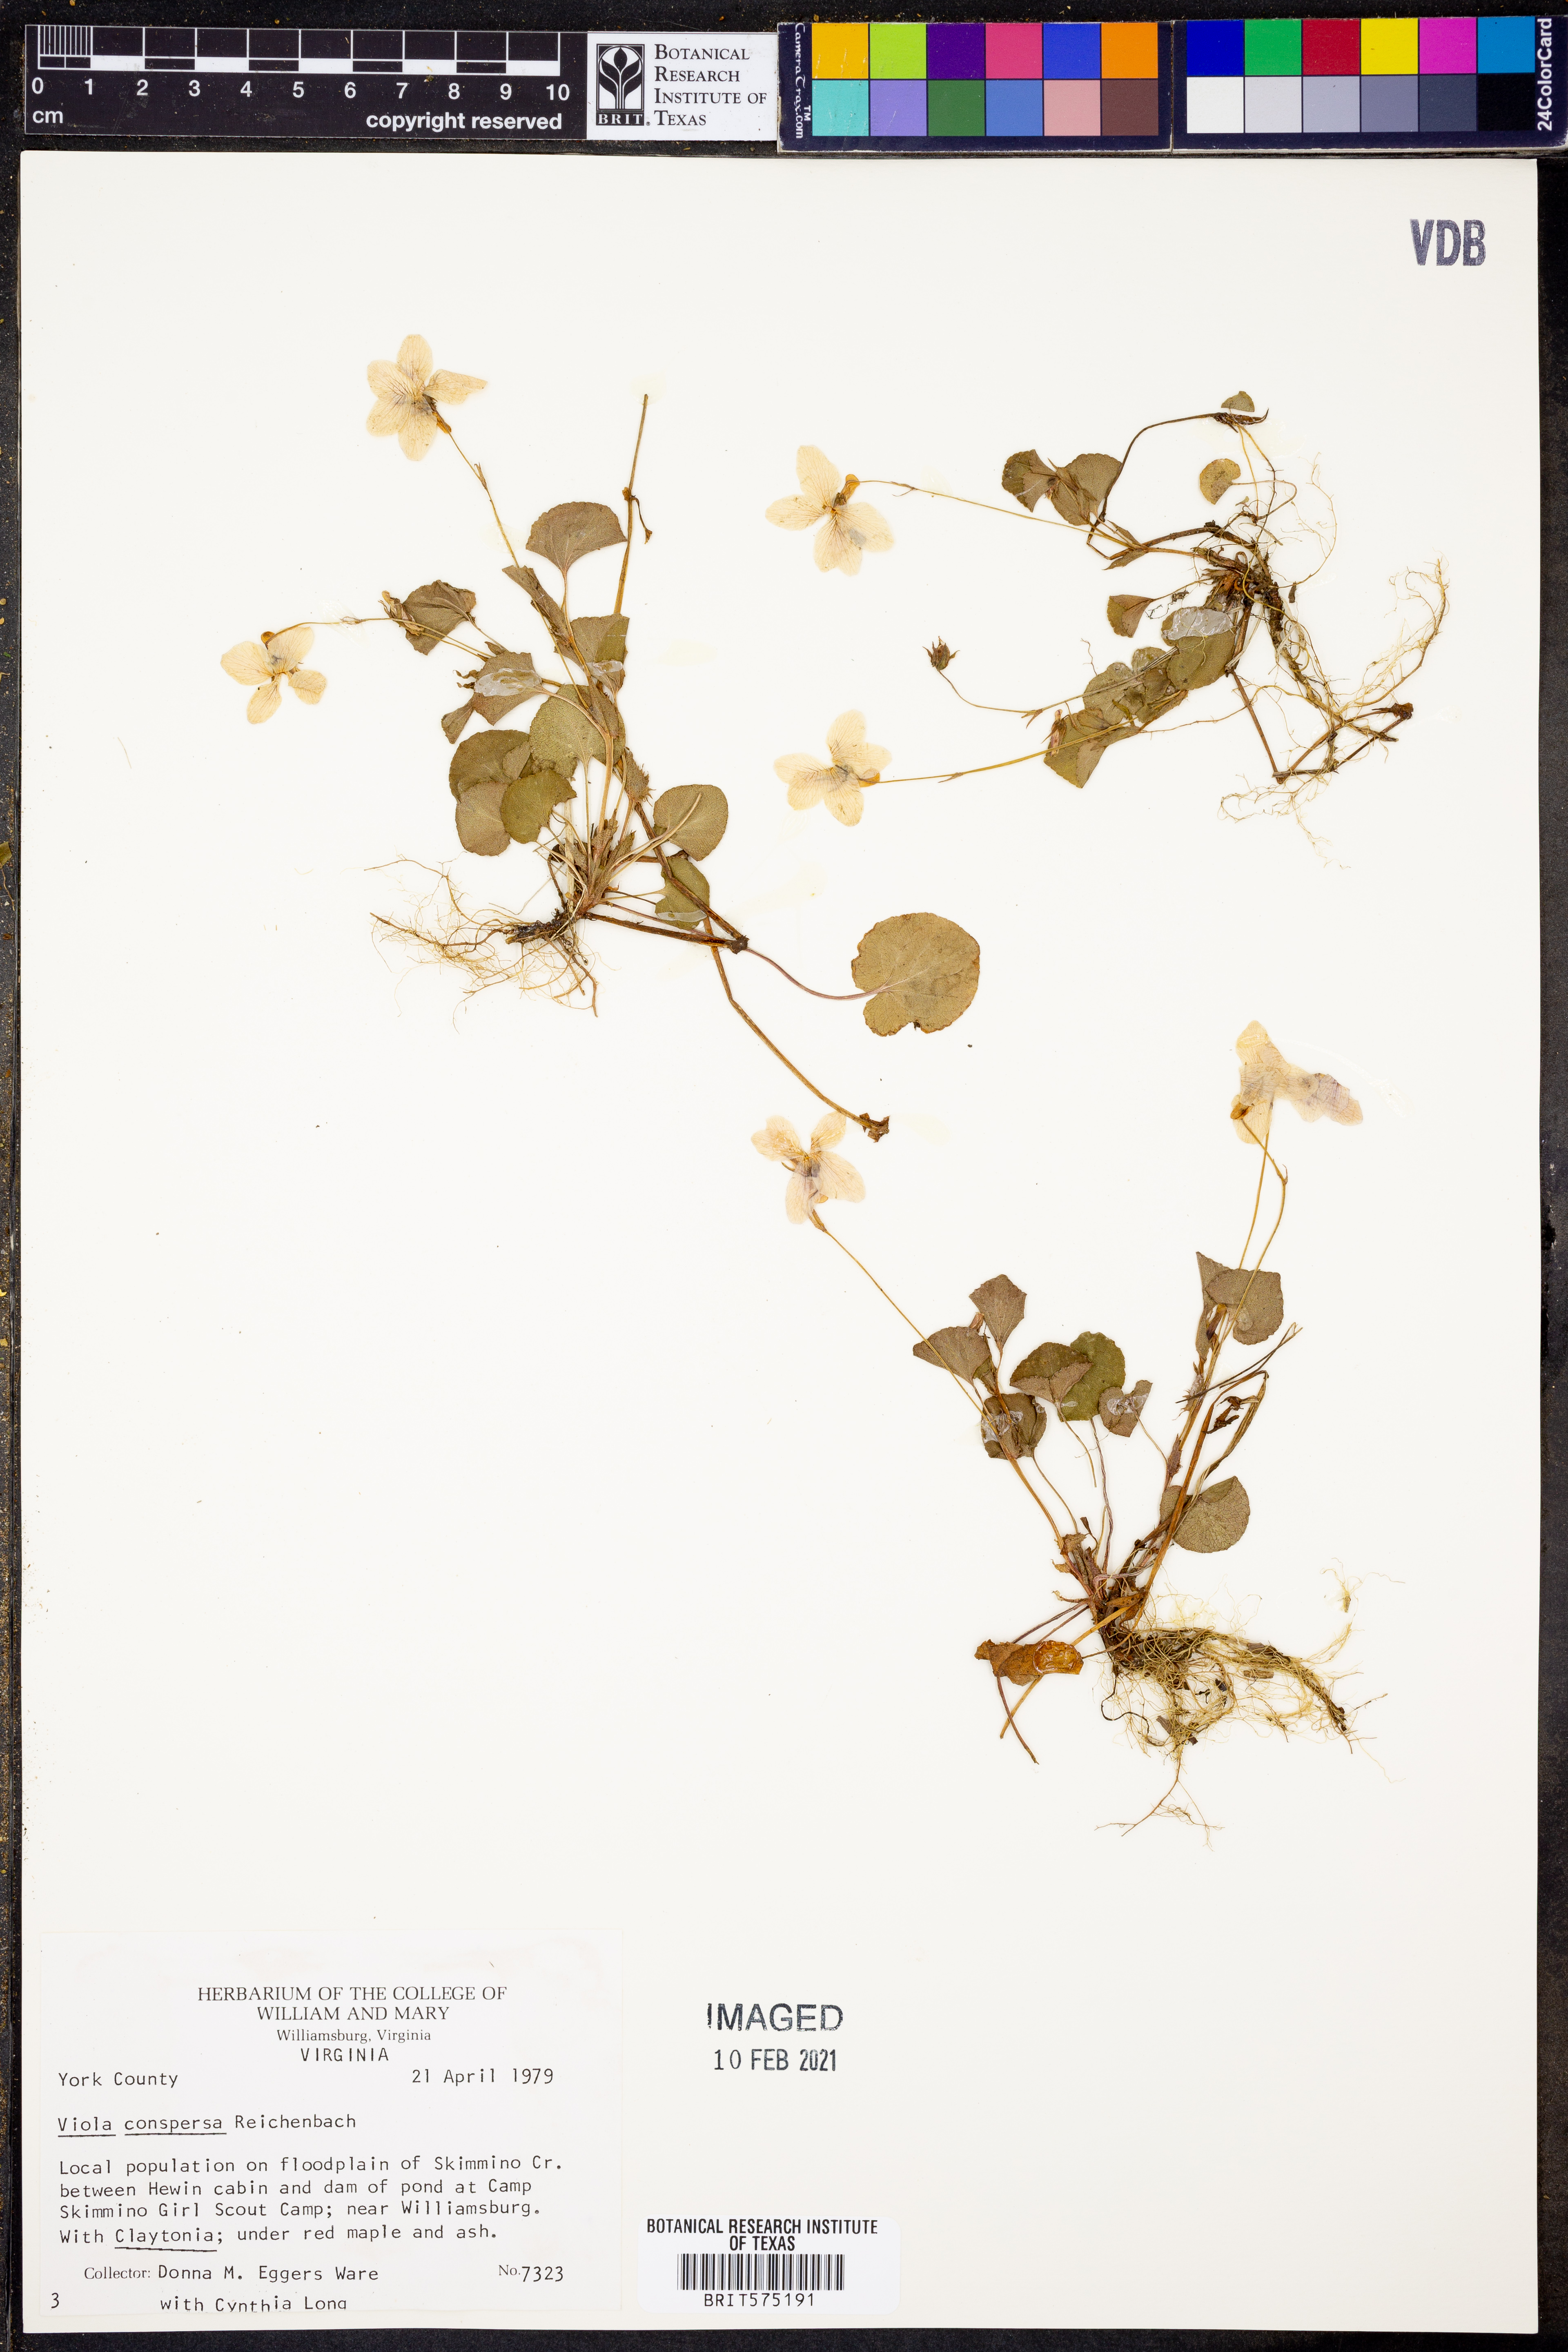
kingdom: Plantae
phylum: Tracheophyta
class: Magnoliopsida
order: Malpighiales
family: Violaceae
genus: Viola
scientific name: Viola labradorica
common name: Labrador violet
